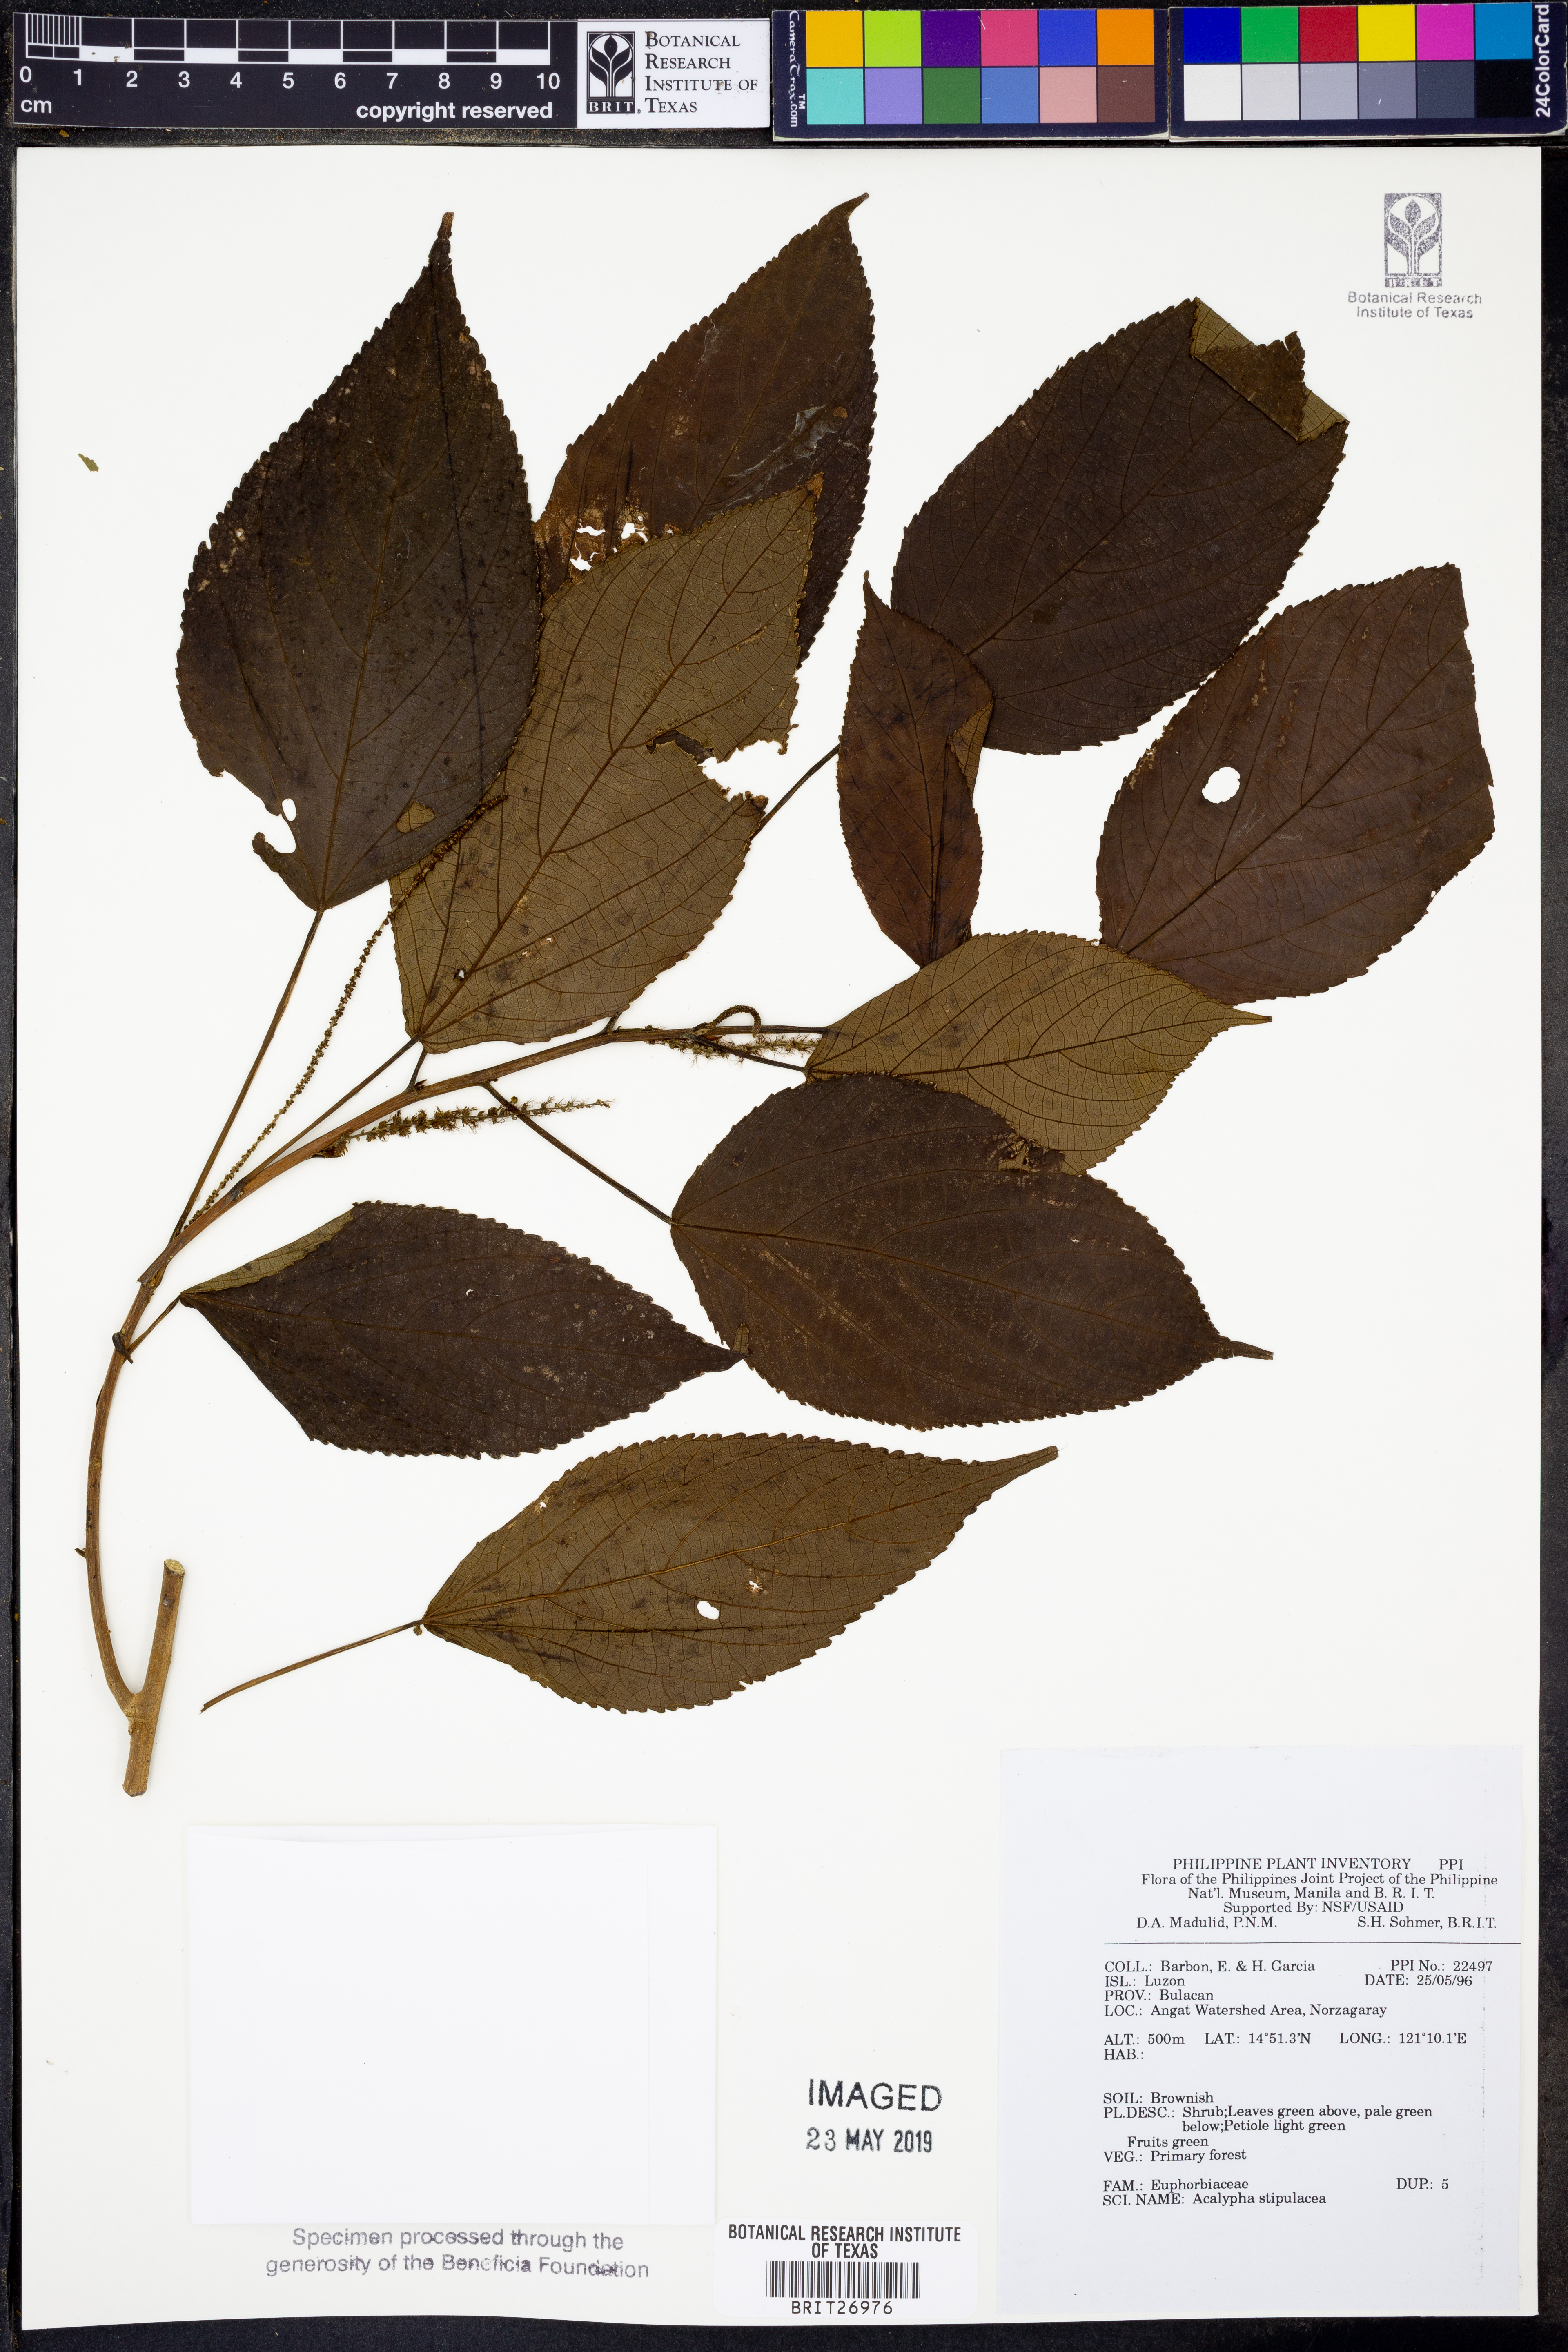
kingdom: Plantae
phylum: Tracheophyta
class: Magnoliopsida
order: Malpighiales
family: Euphorbiaceae
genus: Acalypha
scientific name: Acalypha amentacea
